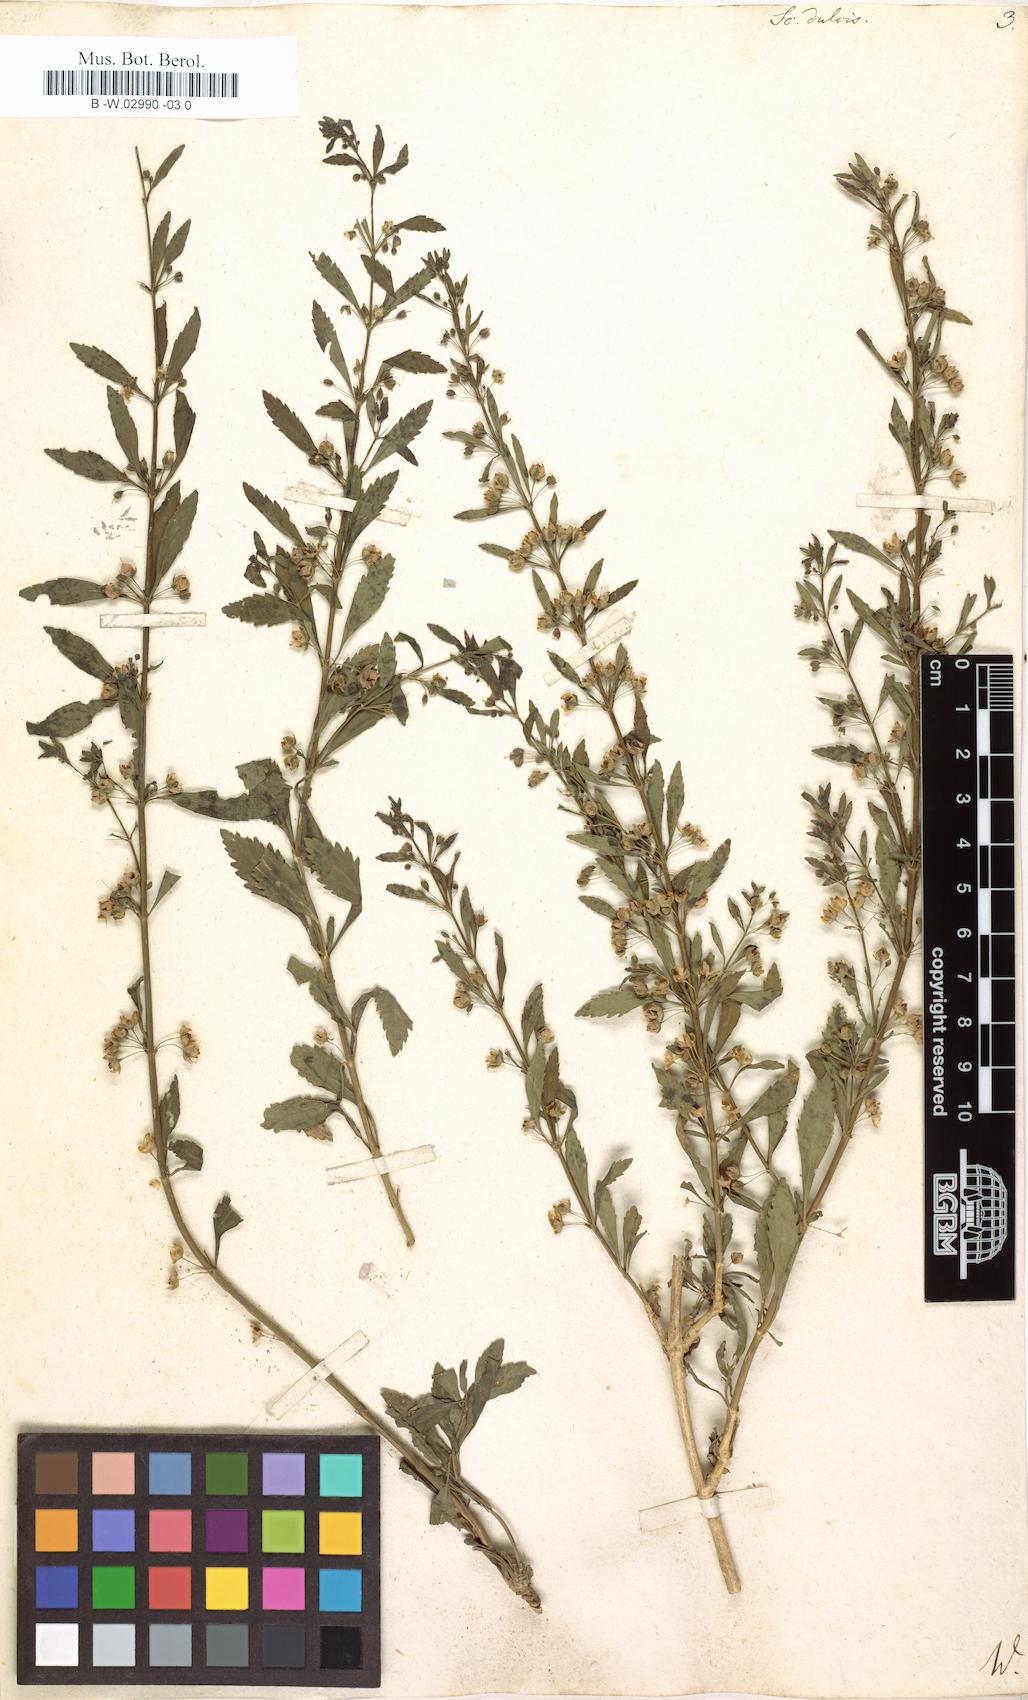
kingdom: Plantae
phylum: Tracheophyta
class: Magnoliopsida
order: Lamiales
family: Plantaginaceae
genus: Scoparia
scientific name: Scoparia dulcis
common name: Scoparia-weed
